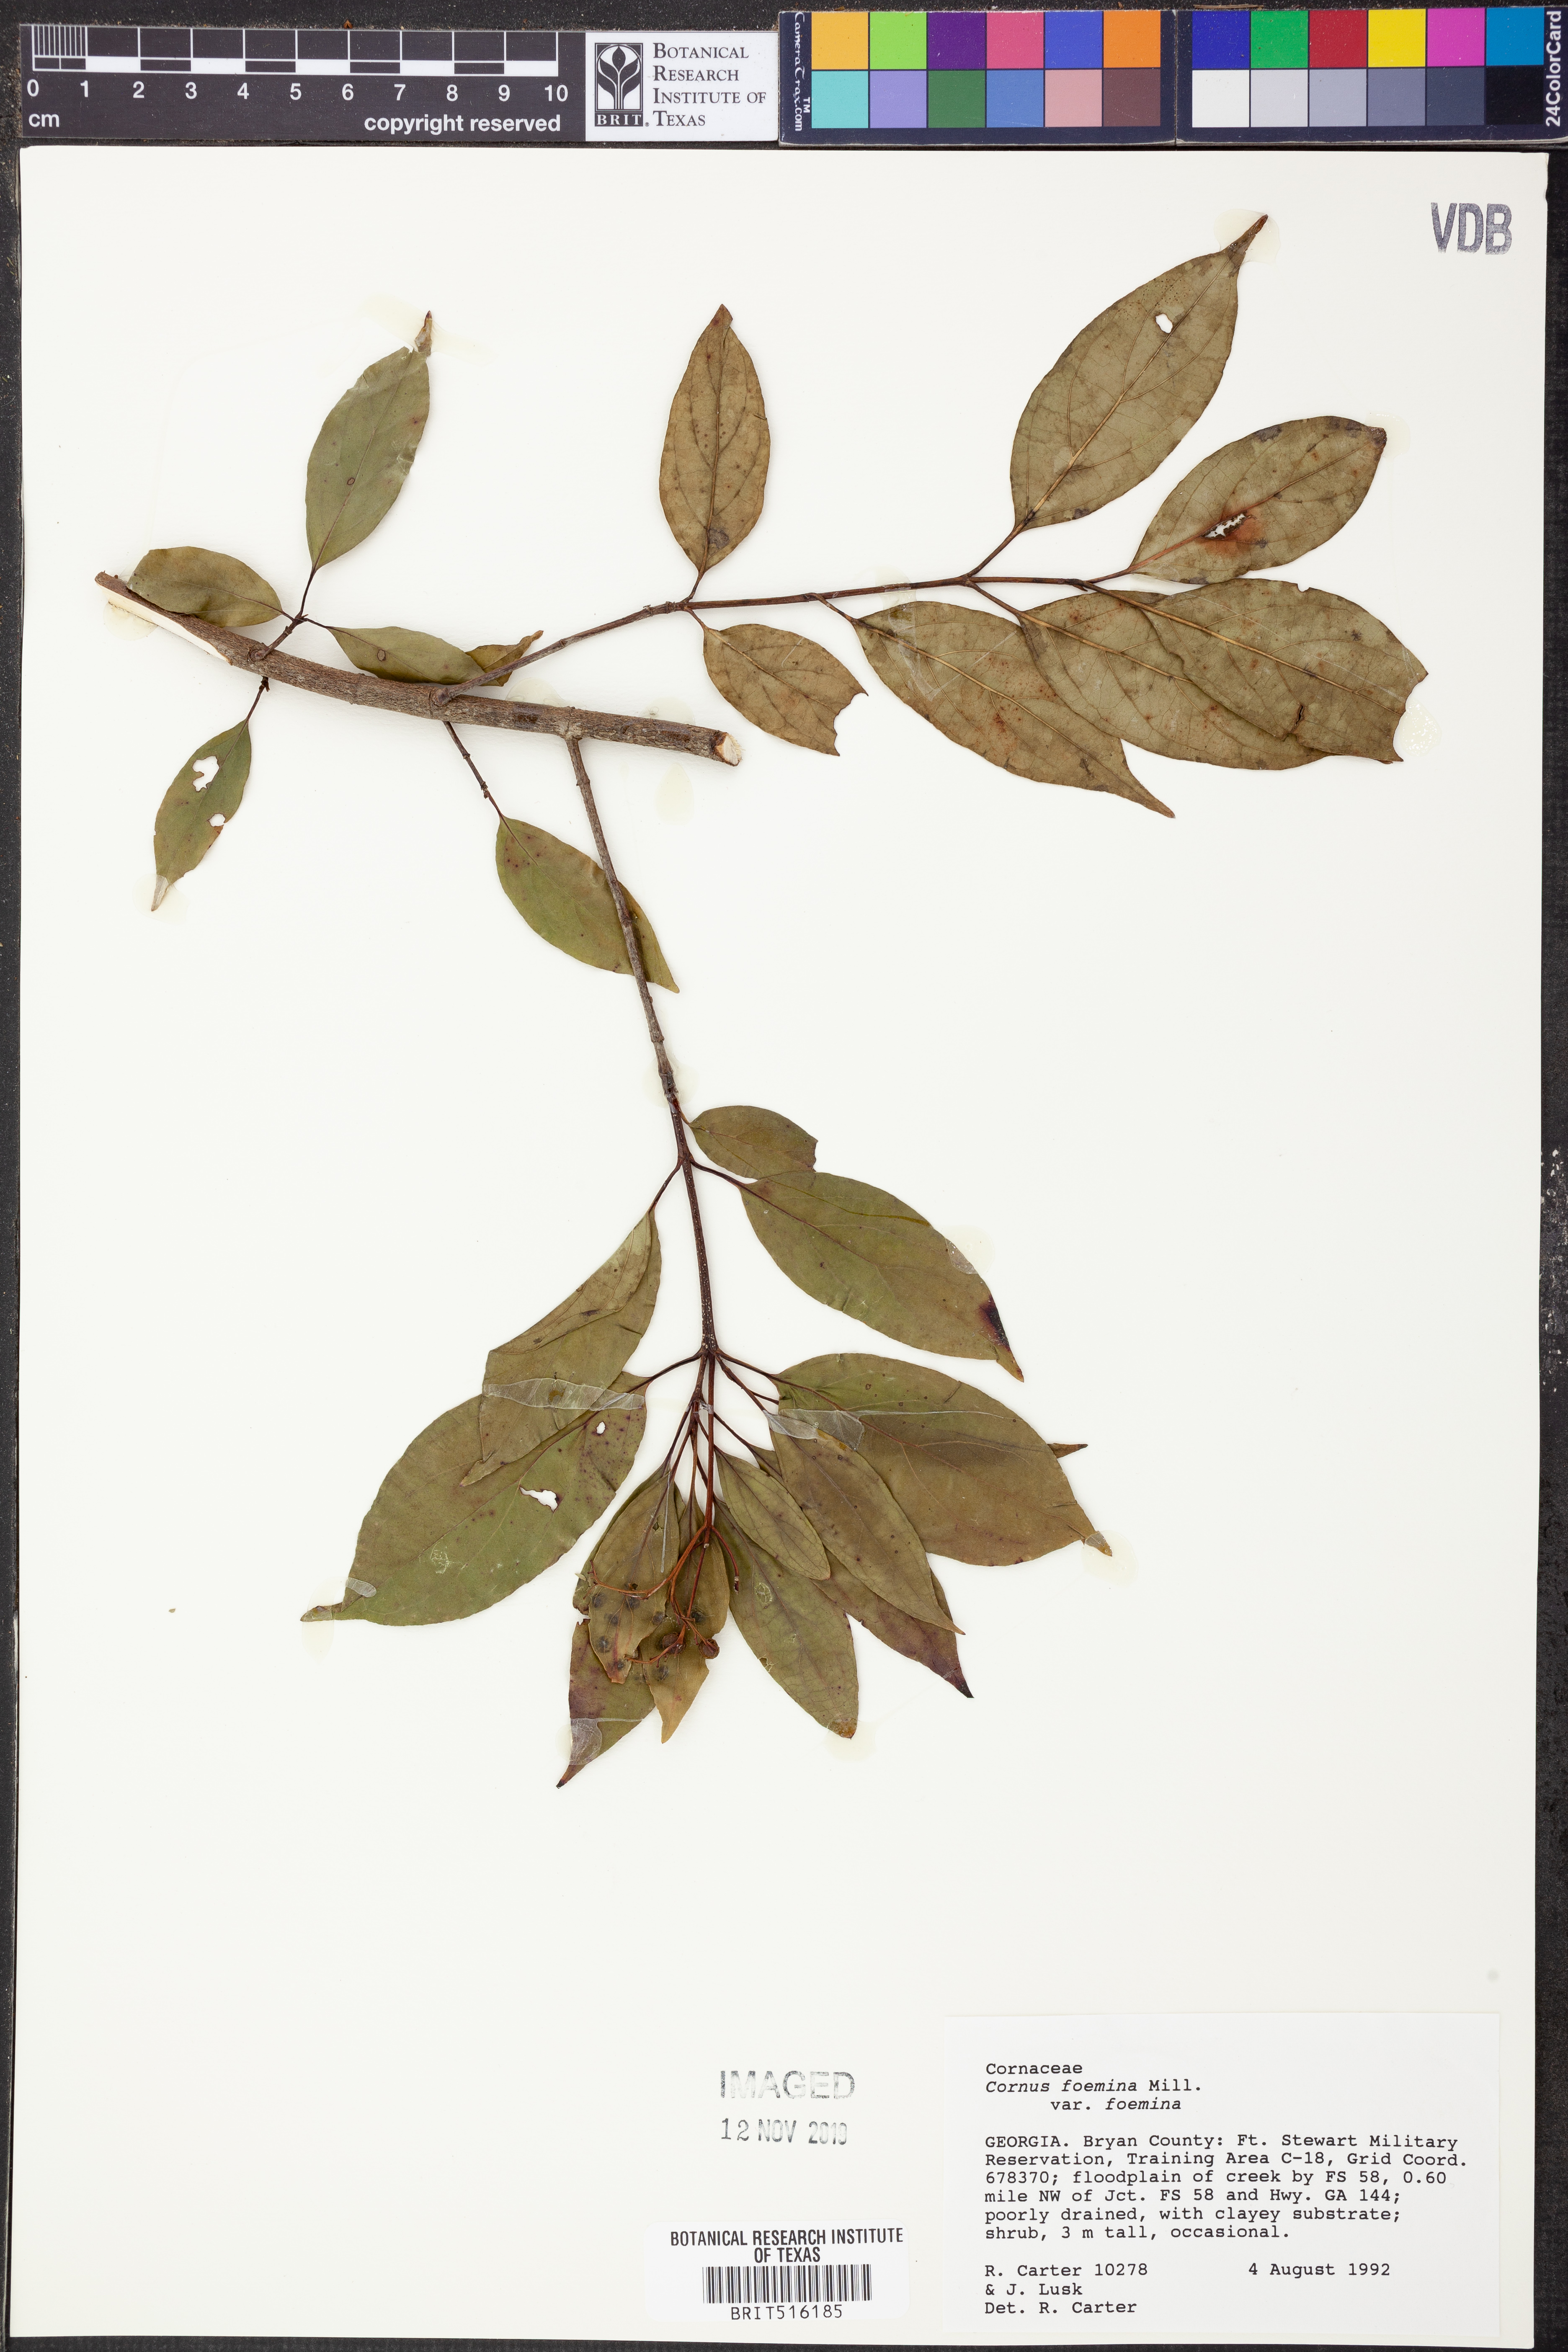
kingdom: Plantae
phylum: Tracheophyta
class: Magnoliopsida
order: Cornales
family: Cornaceae
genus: Cornus
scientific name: Cornus foemina
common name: Swamp dogwood
